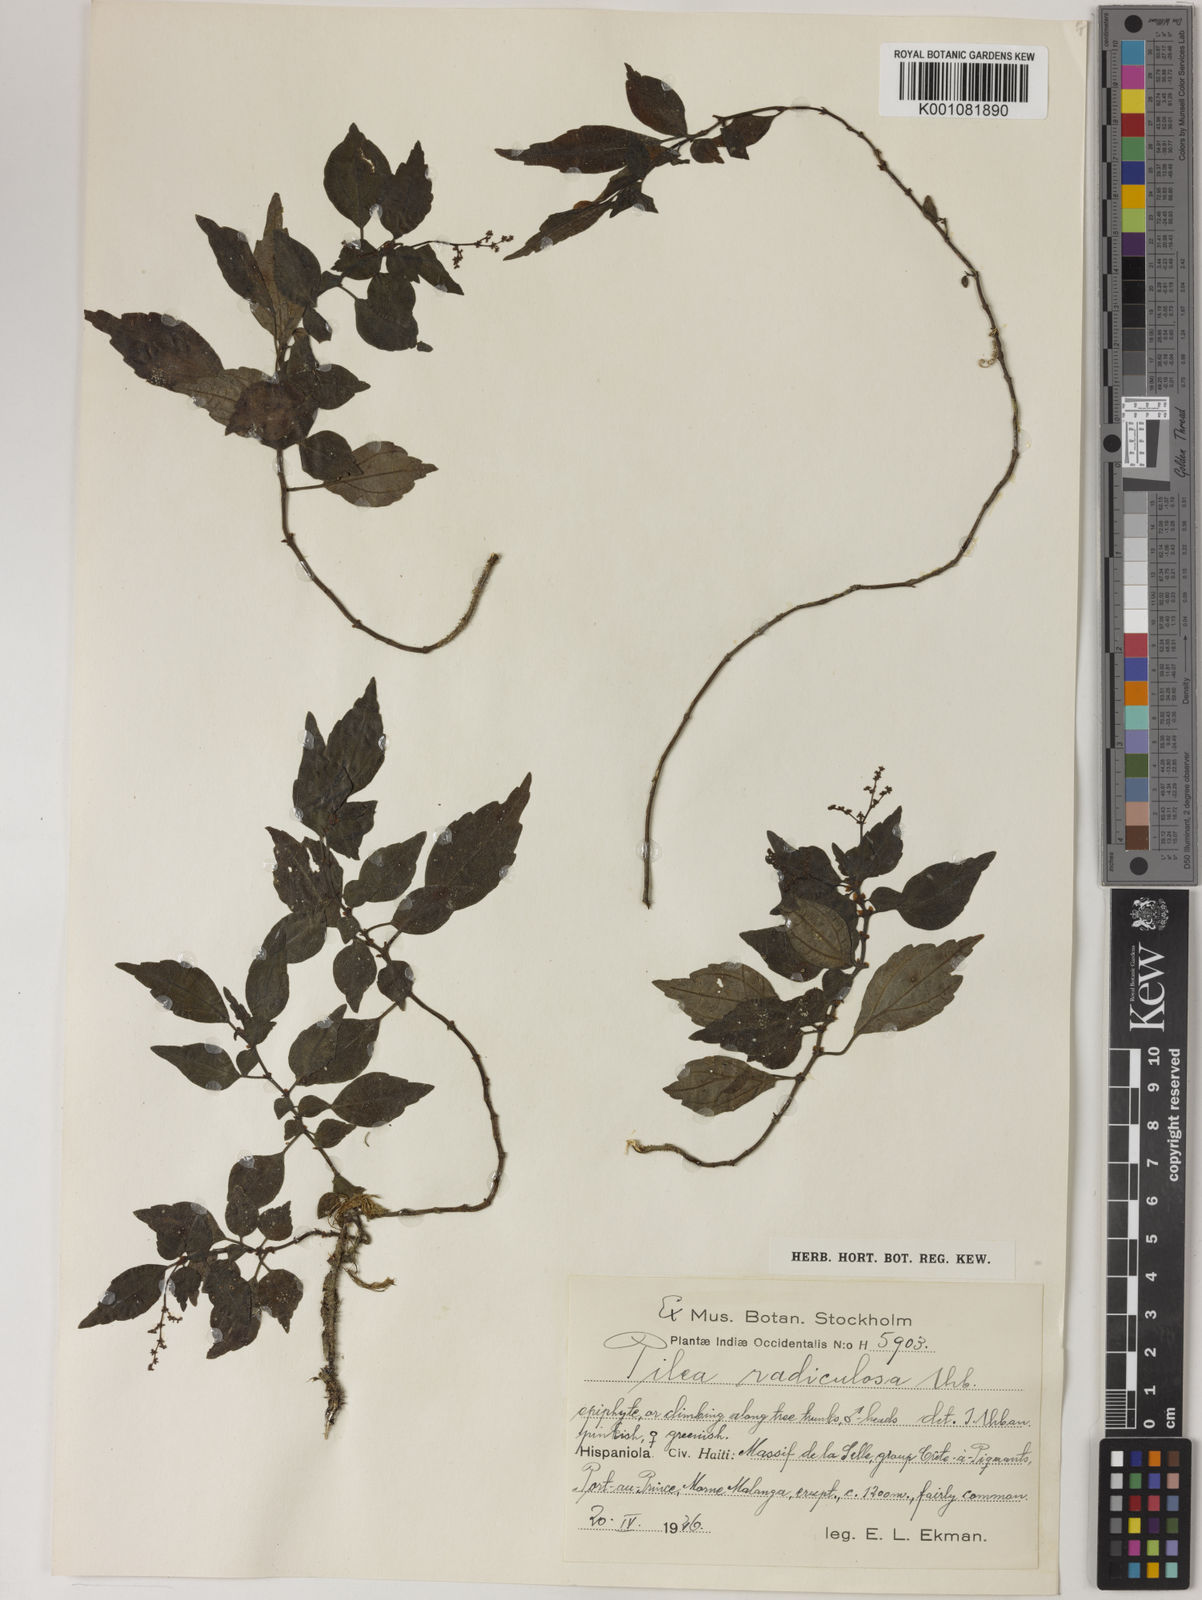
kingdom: Plantae
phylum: Tracheophyta
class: Magnoliopsida
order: Rosales
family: Urticaceae
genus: Pilea
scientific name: Pilea radiculosa
